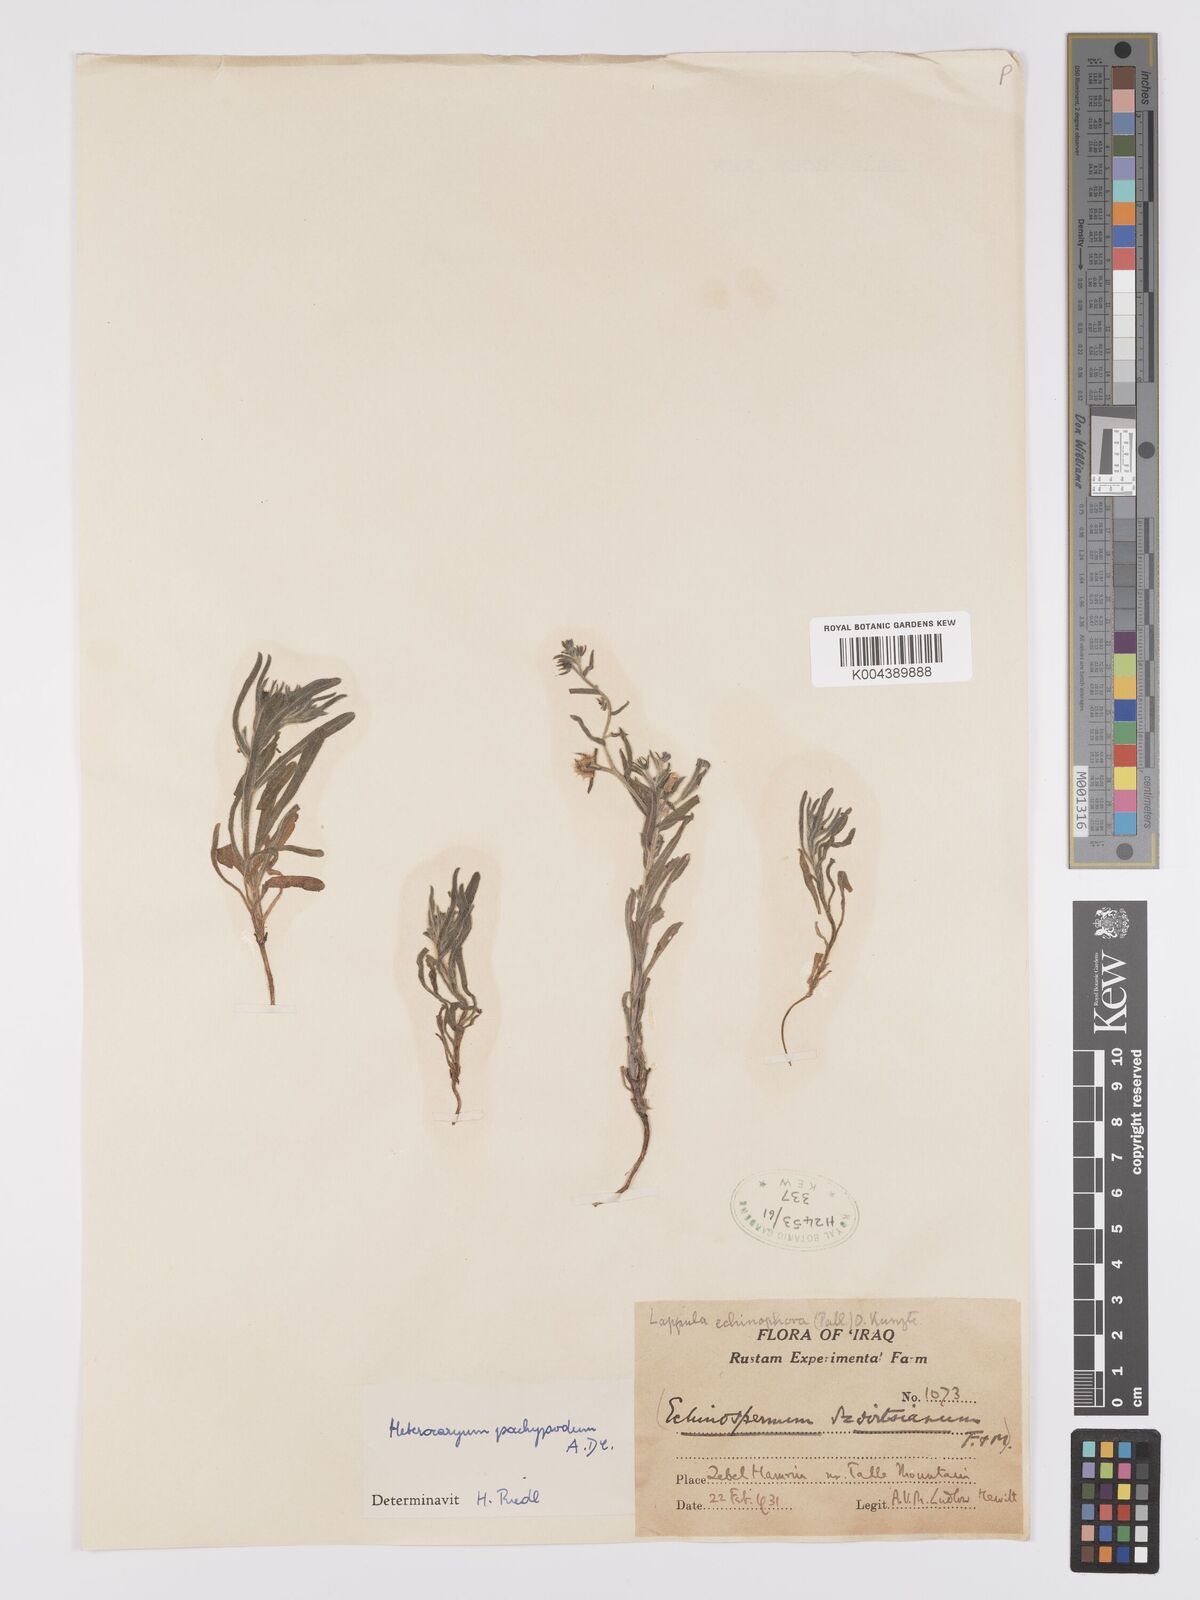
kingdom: Plantae
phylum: Tracheophyta
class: Magnoliopsida
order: Boraginales
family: Boraginaceae
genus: Lappula
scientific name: Lappula
